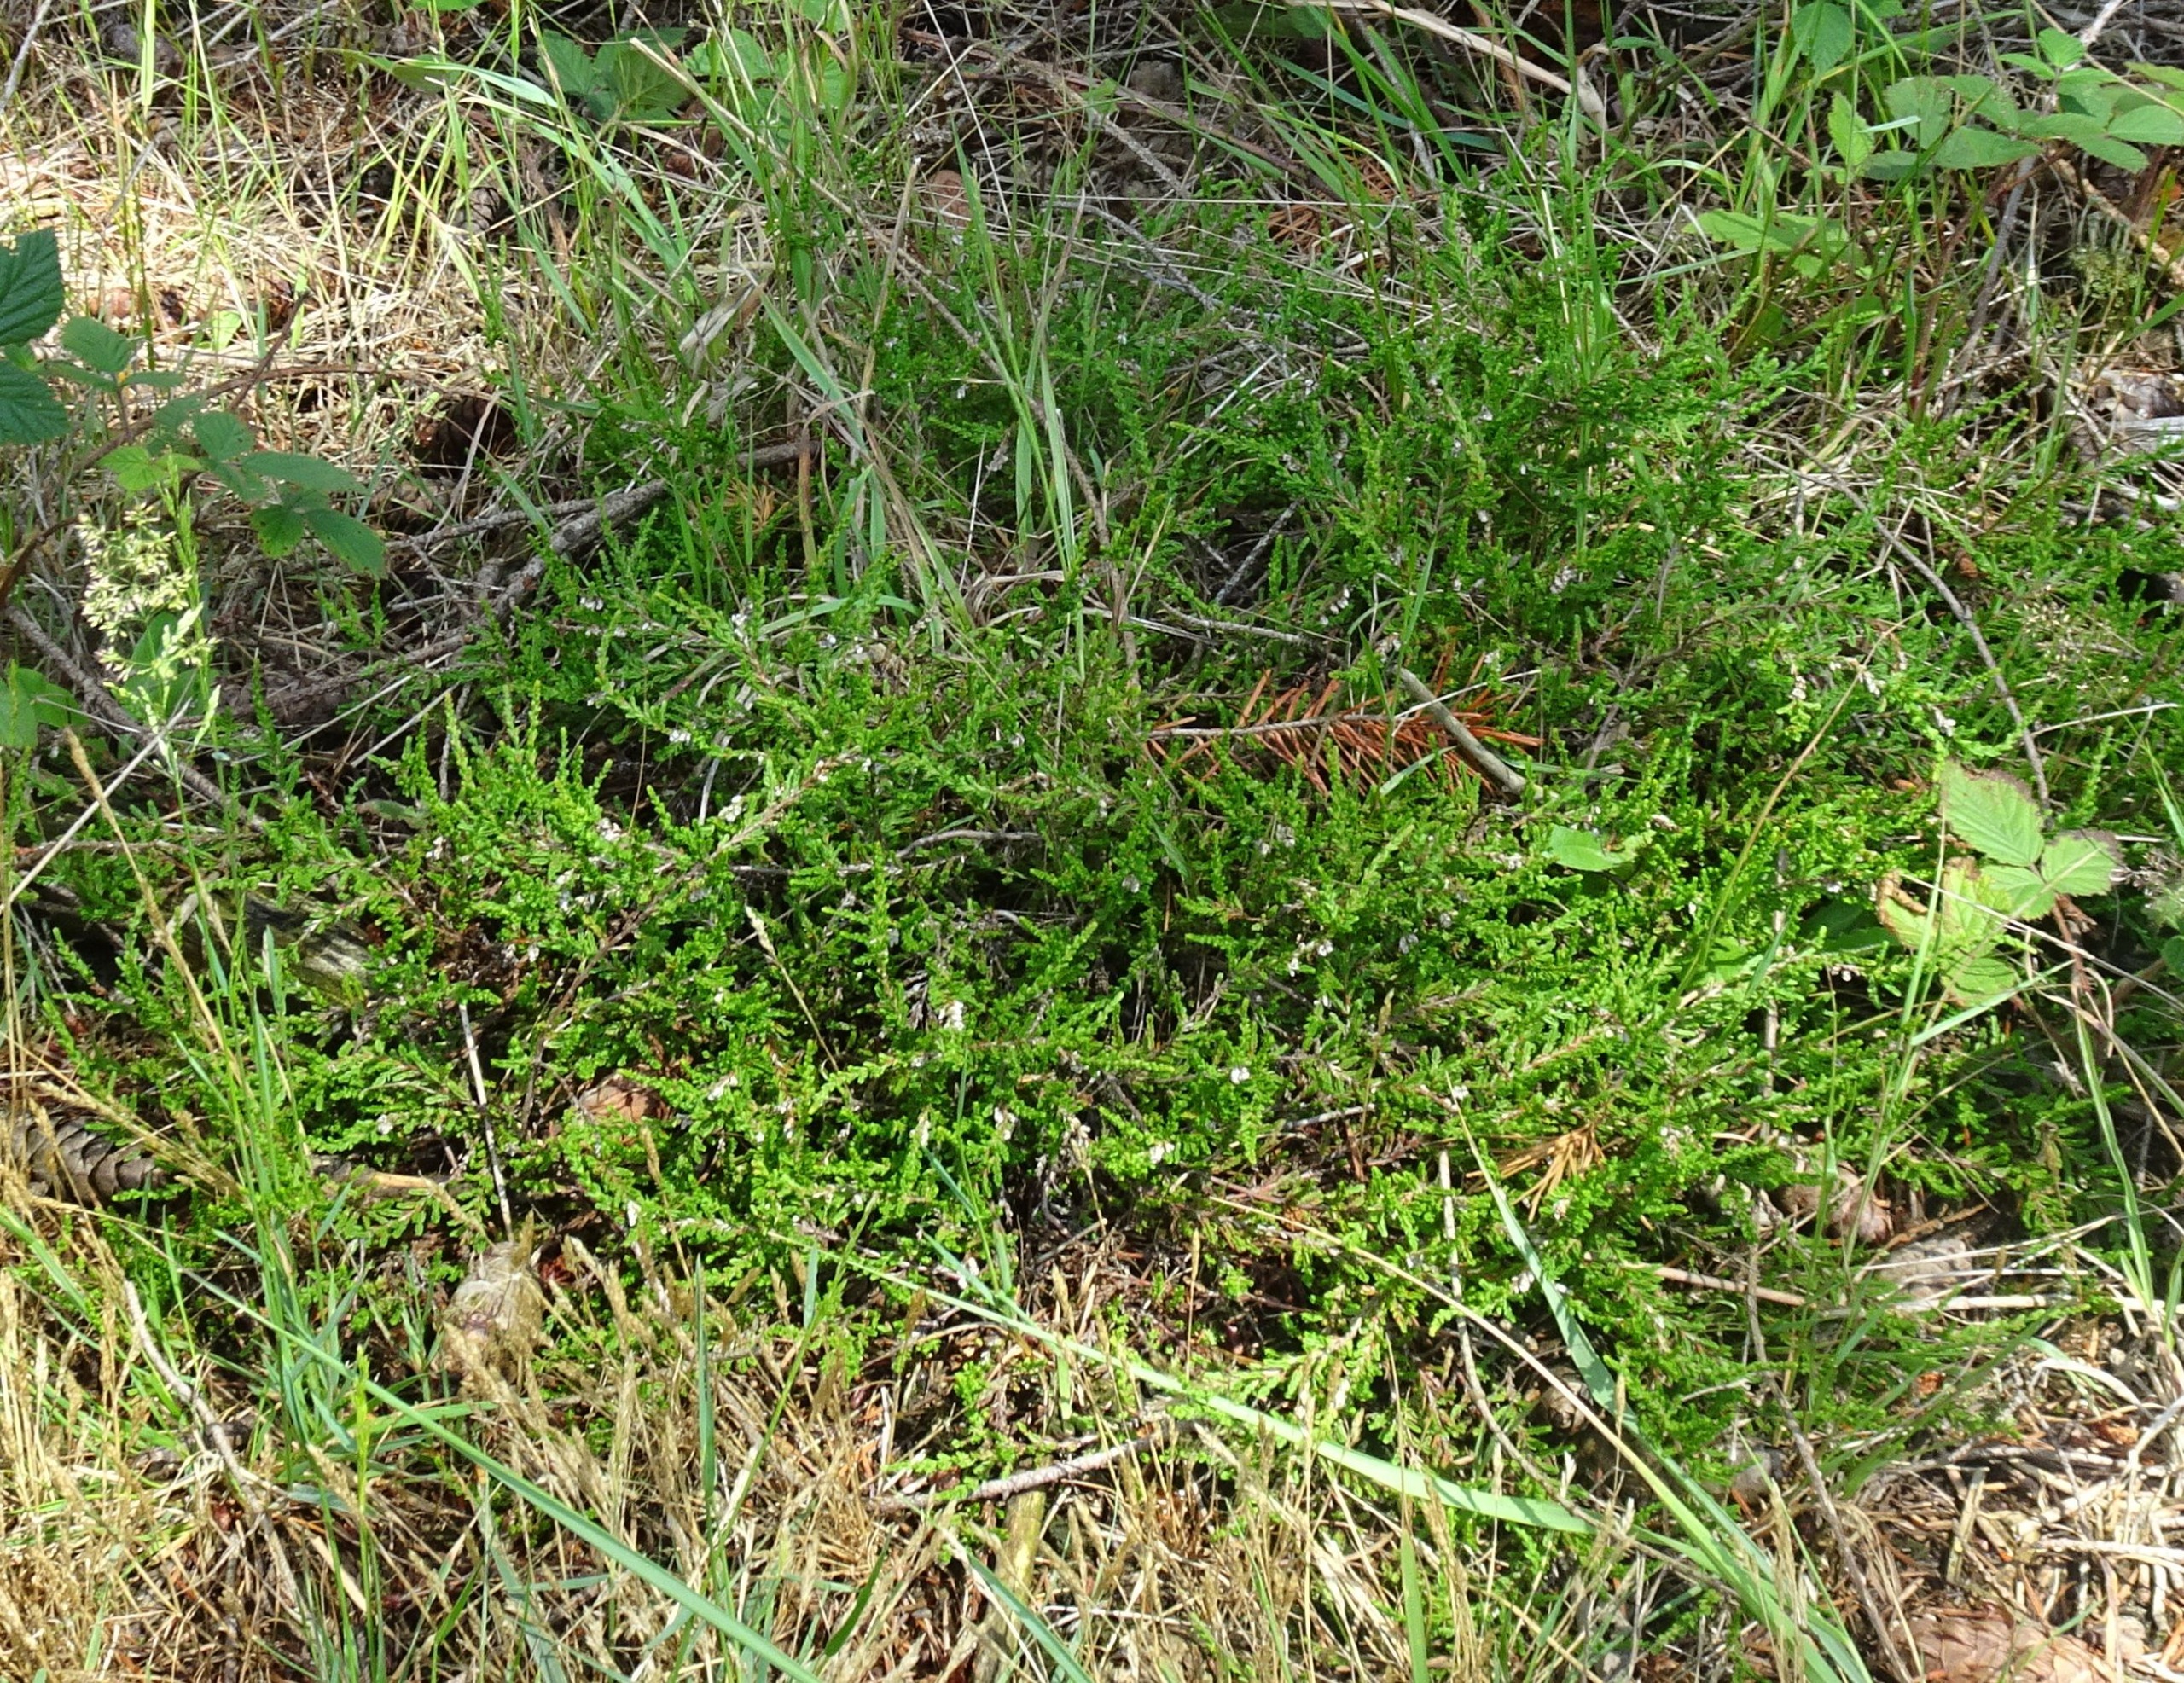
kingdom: Plantae
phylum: Tracheophyta
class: Magnoliopsida
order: Ericales
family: Ericaceae
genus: Calluna
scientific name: Calluna vulgaris
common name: Hedelyng
